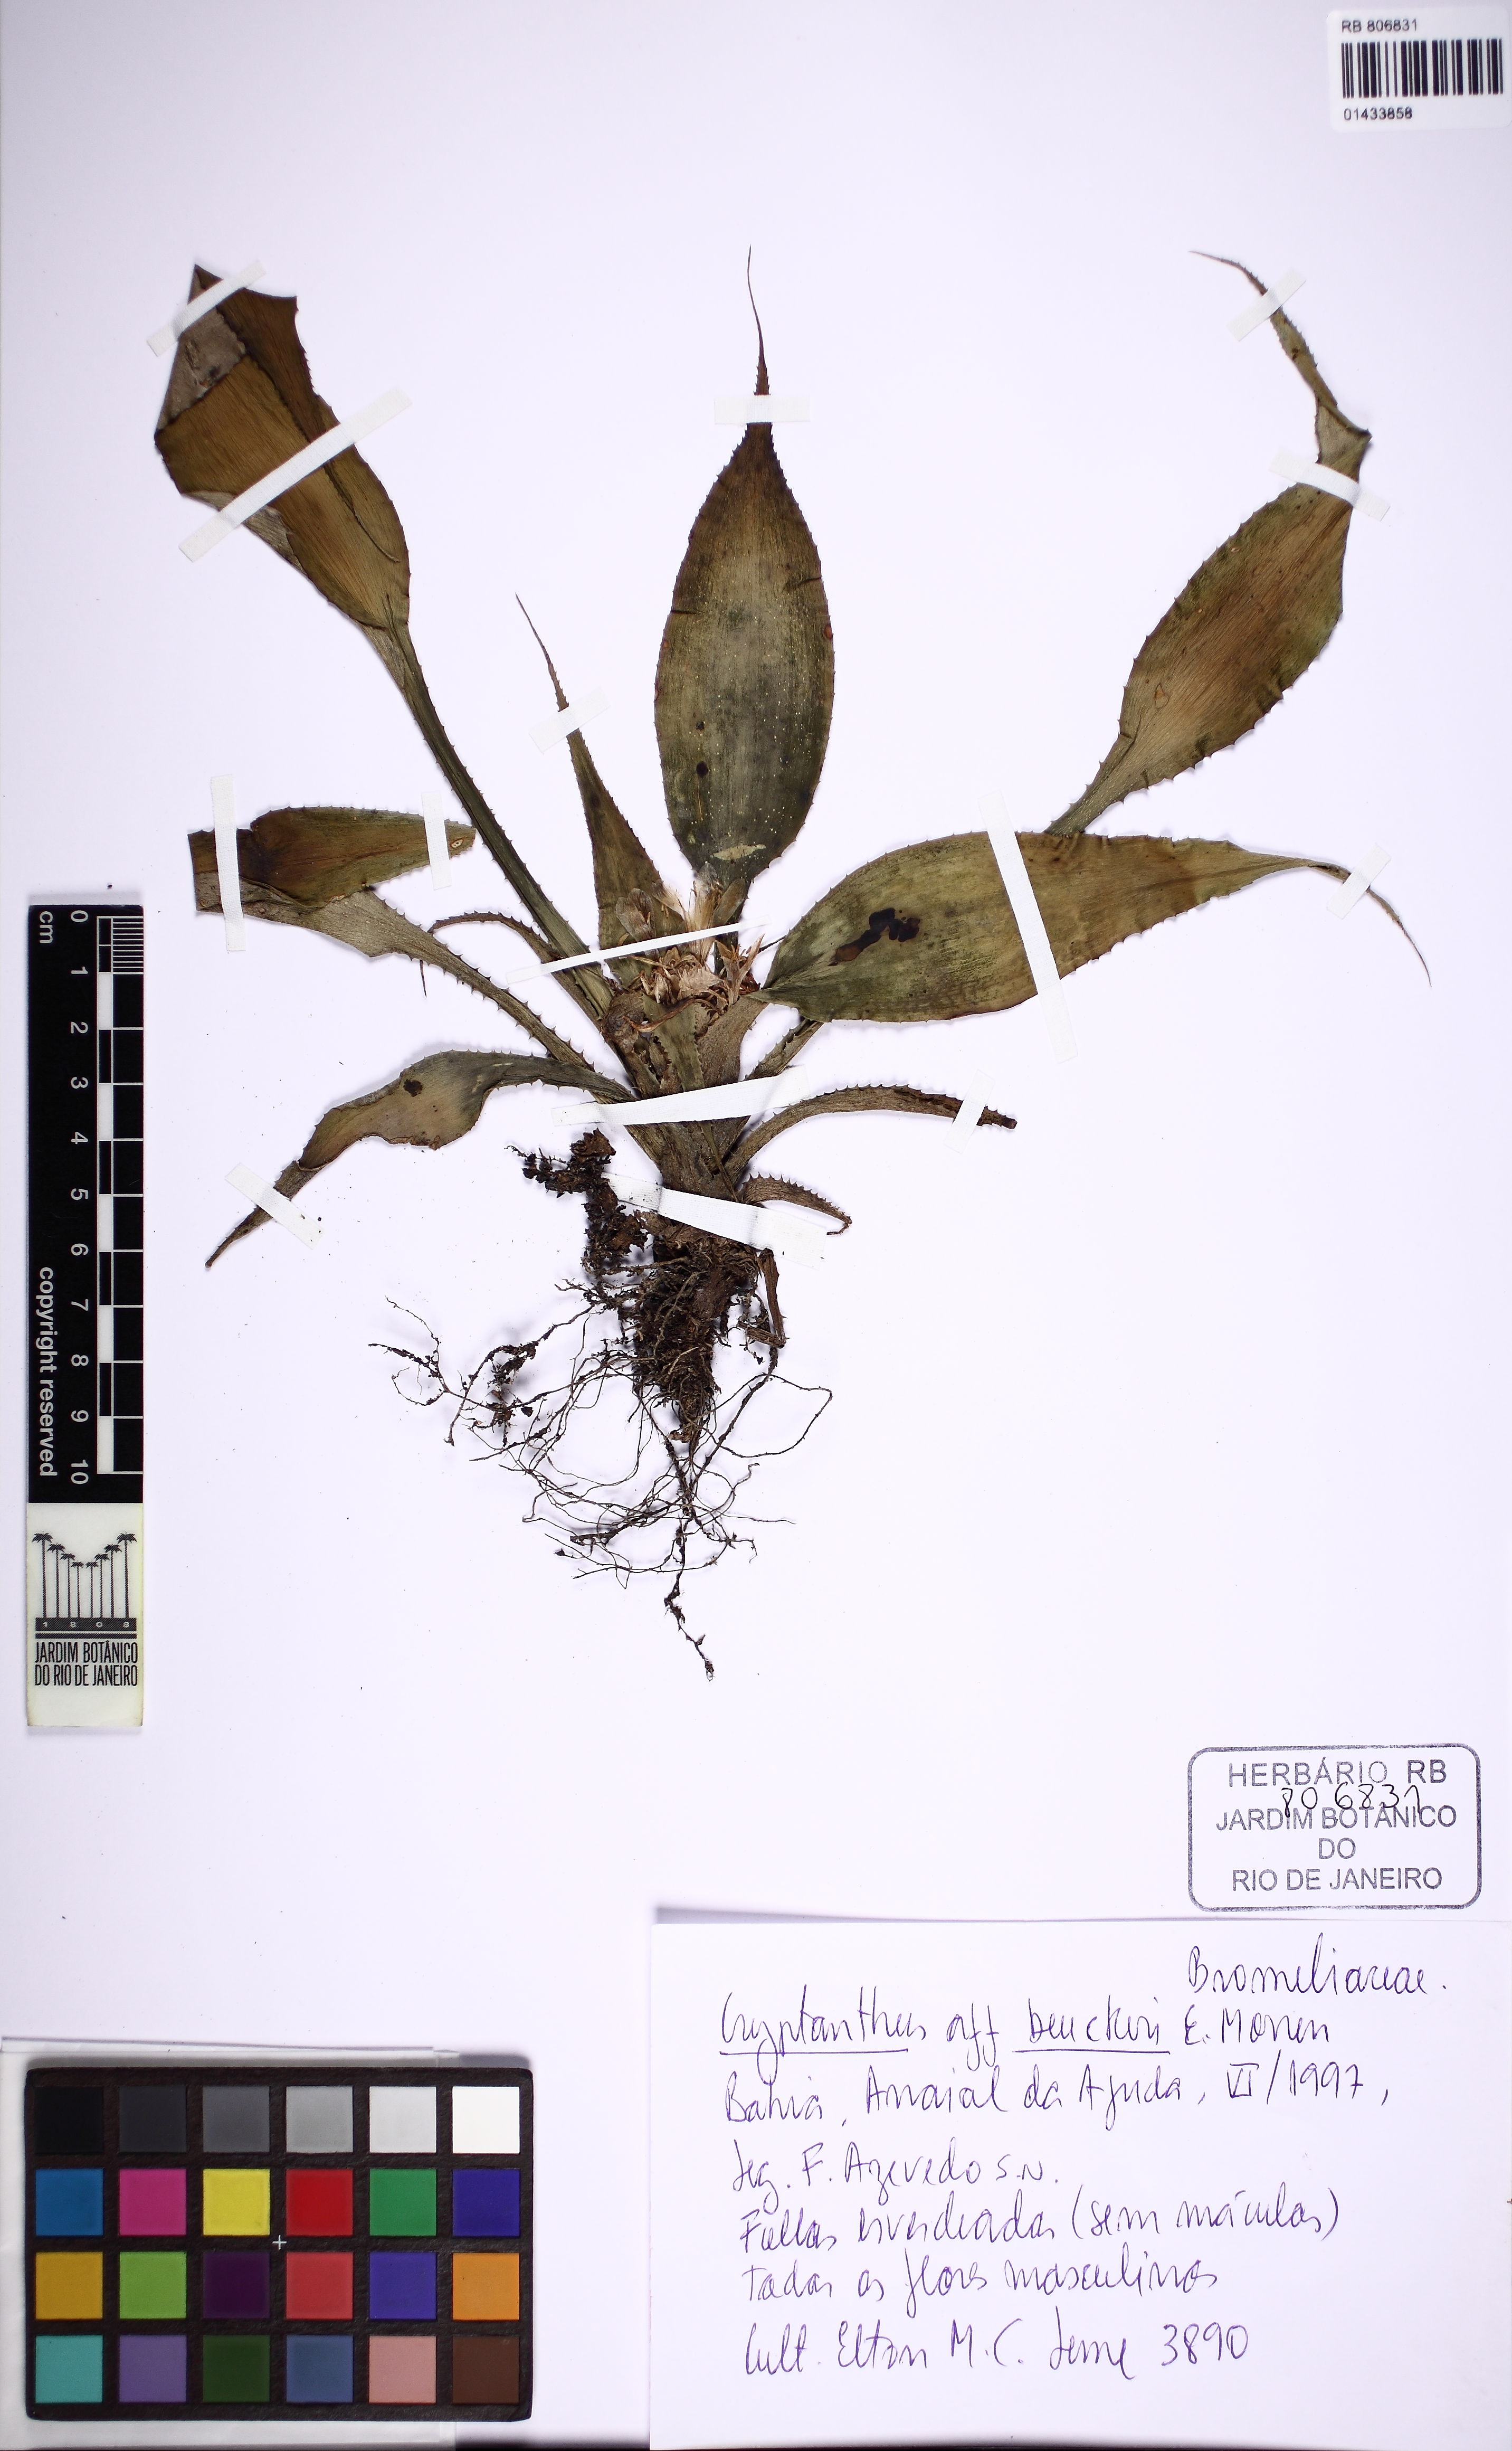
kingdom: Plantae
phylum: Tracheophyta
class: Liliopsida
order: Poales
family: Bromeliaceae
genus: Cryptanthus
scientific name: Cryptanthus beuckeri
